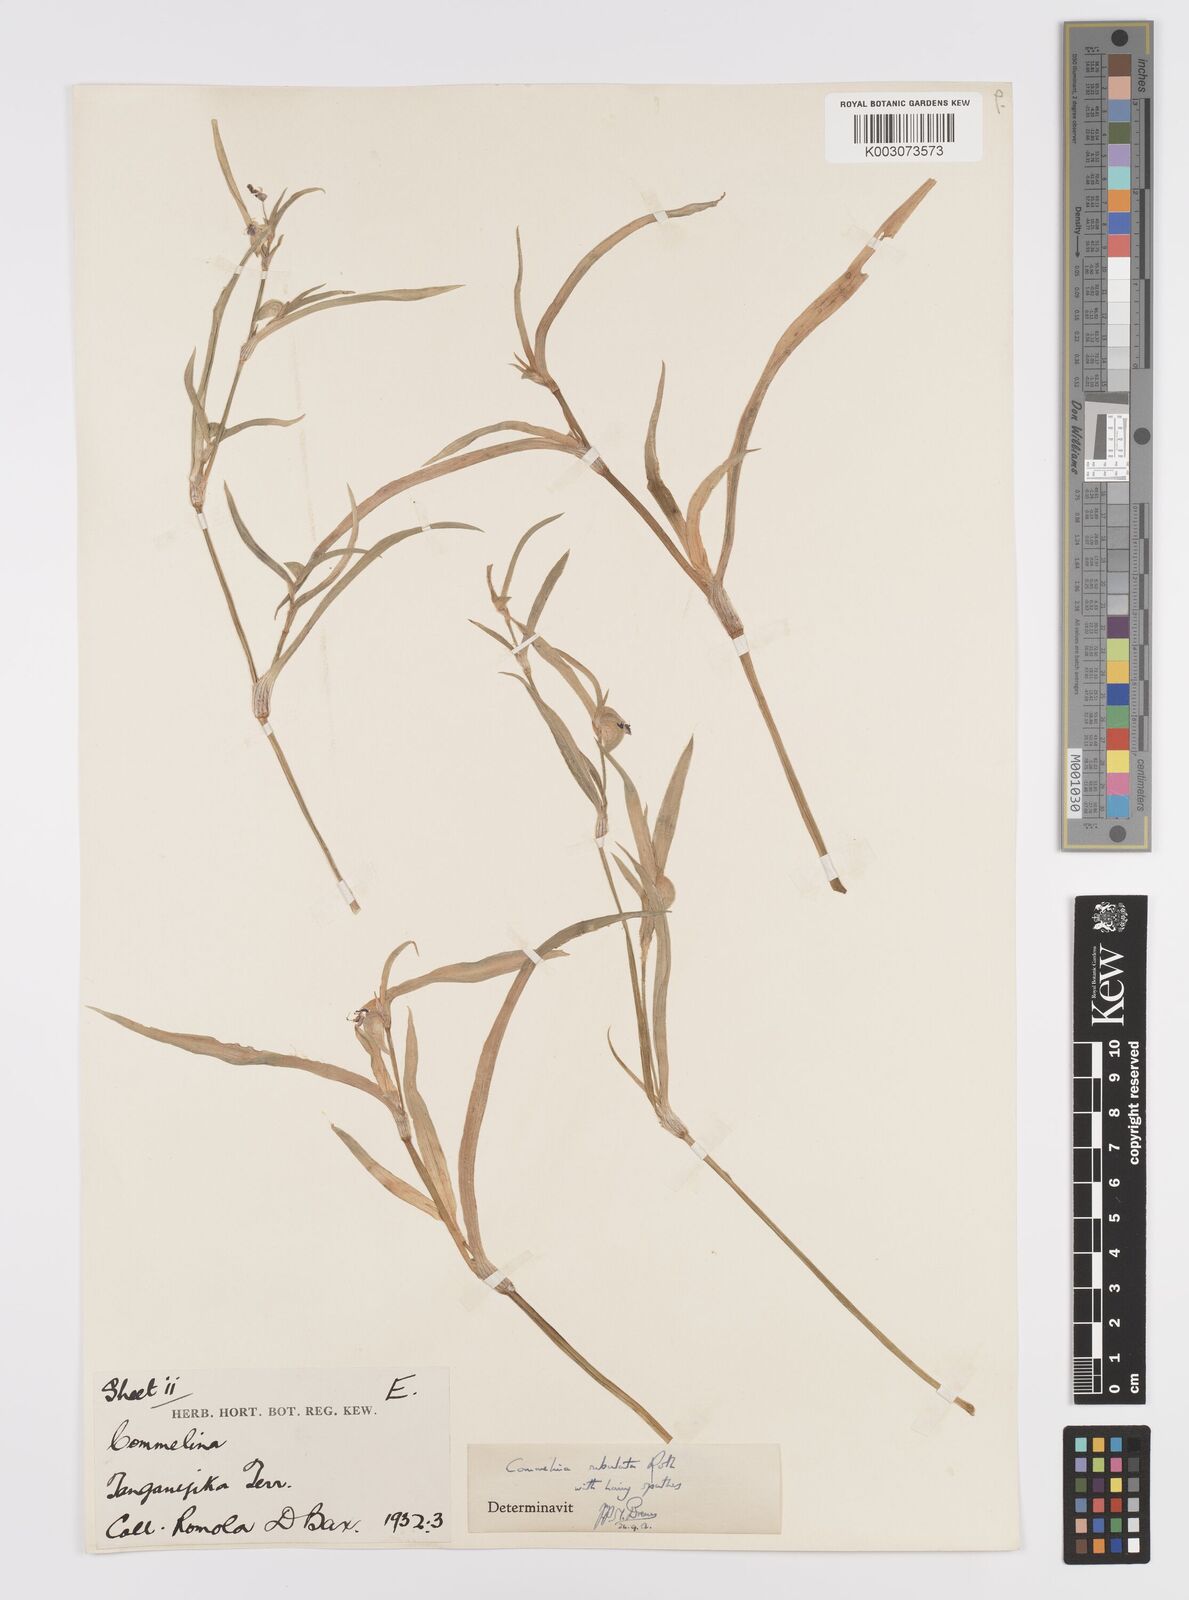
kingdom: Plantae
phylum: Tracheophyta
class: Liliopsida
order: Commelinales
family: Commelinaceae
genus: Commelina
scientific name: Commelina subulata
